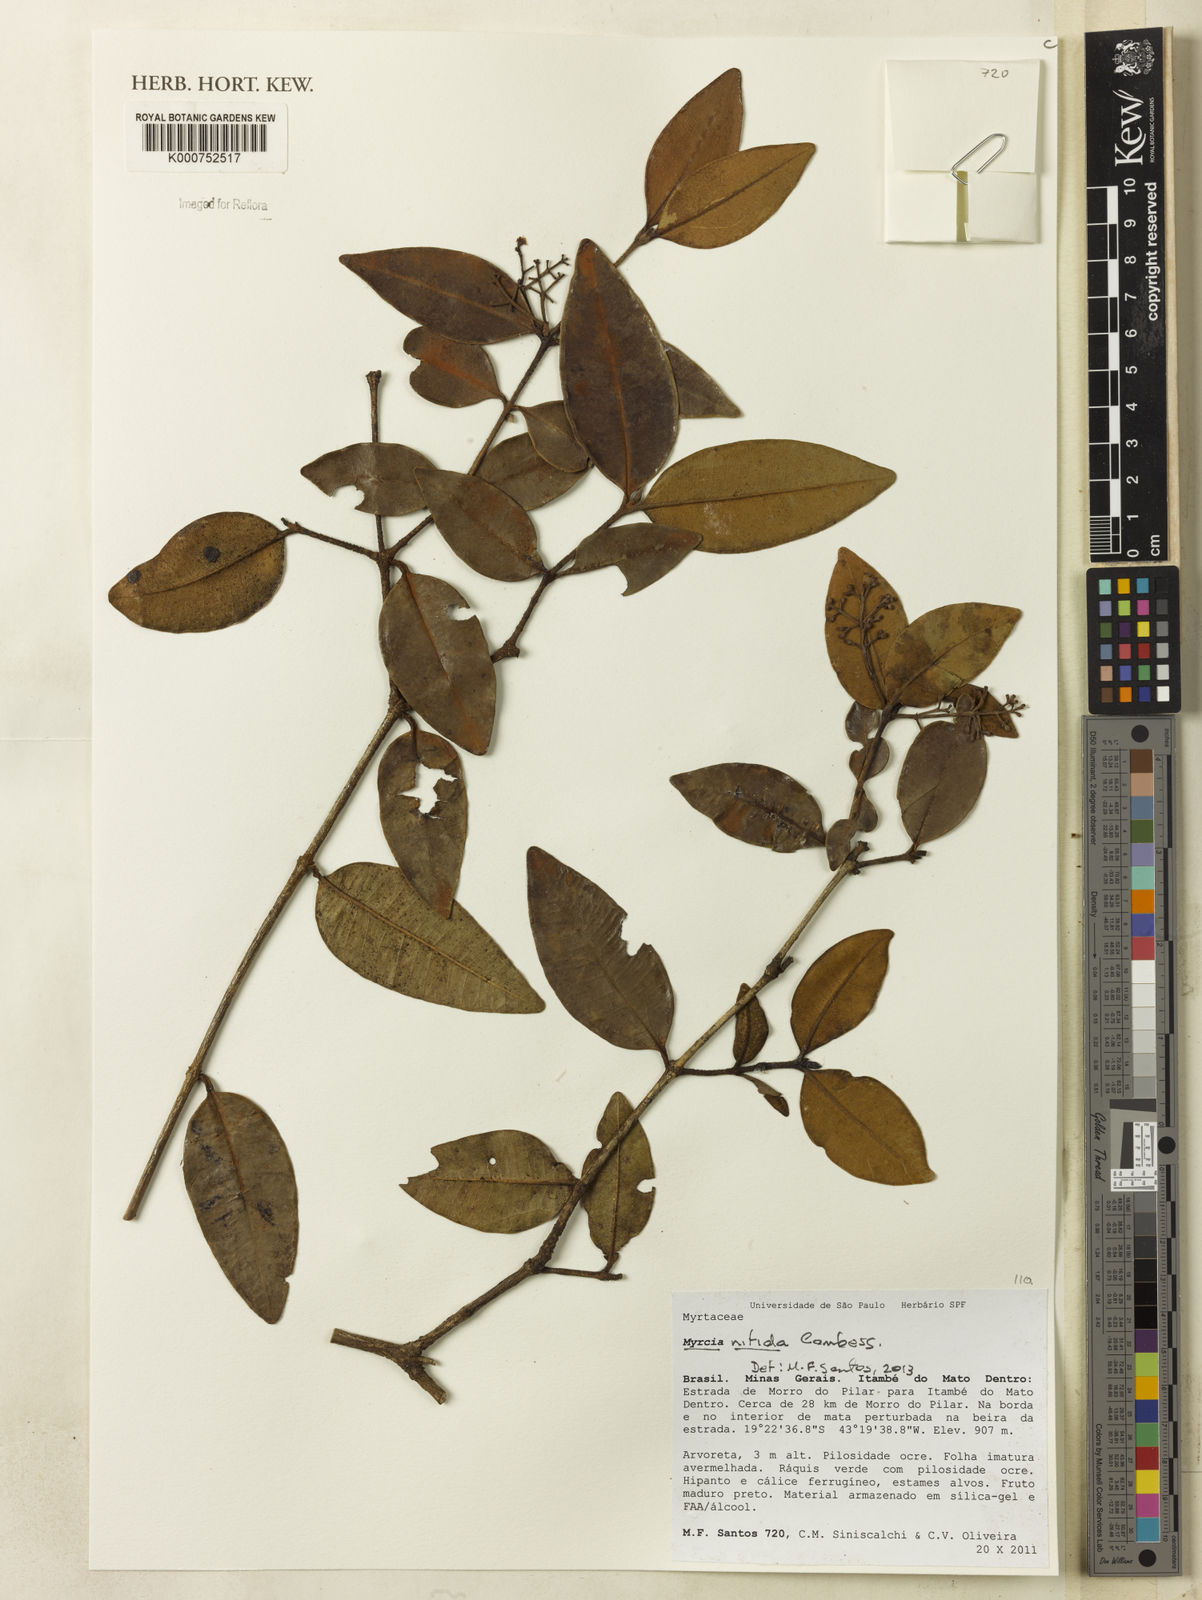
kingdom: Plantae
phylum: Tracheophyta
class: Magnoliopsida
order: Myrtales
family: Myrtaceae
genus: Myrcia
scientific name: Myrcia nitida
